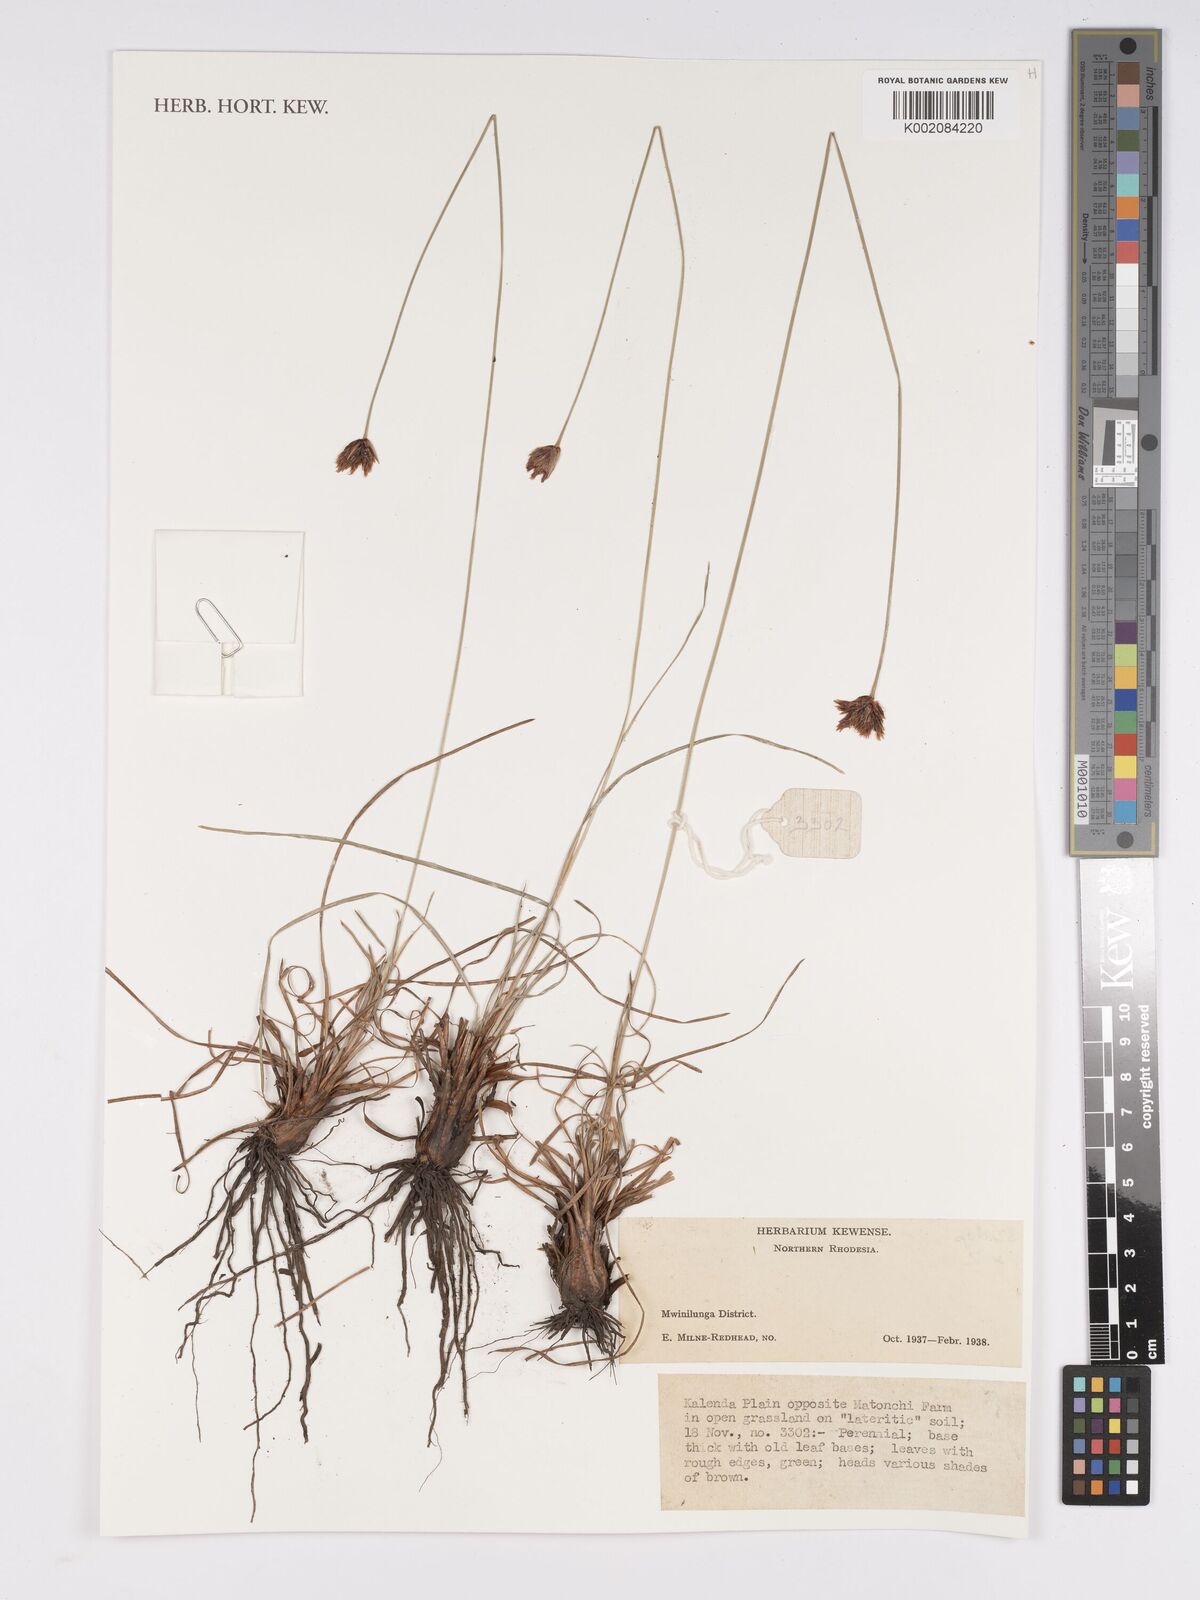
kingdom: Plantae
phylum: Tracheophyta
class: Liliopsida
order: Poales
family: Cyperaceae
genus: Bulbostylis
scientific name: Bulbostylis
